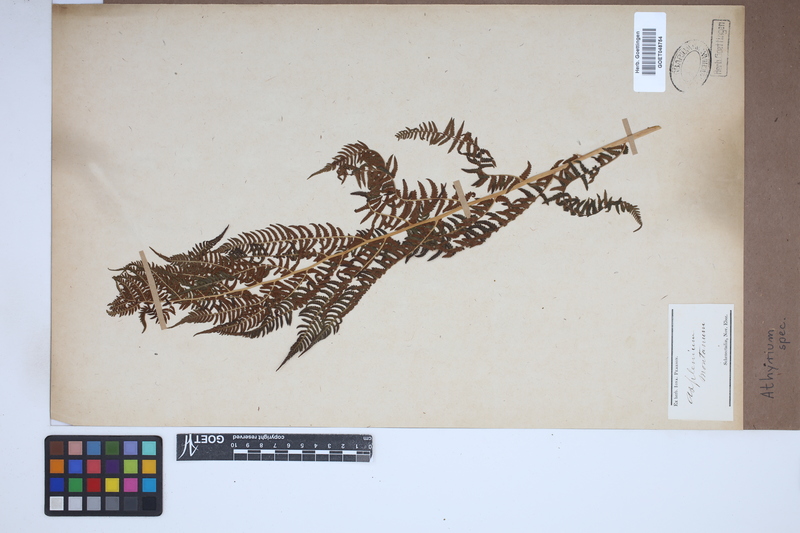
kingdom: Plantae
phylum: Tracheophyta
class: Polypodiopsida
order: Polypodiales
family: Athyriaceae
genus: Athyrium
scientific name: Athyrium
